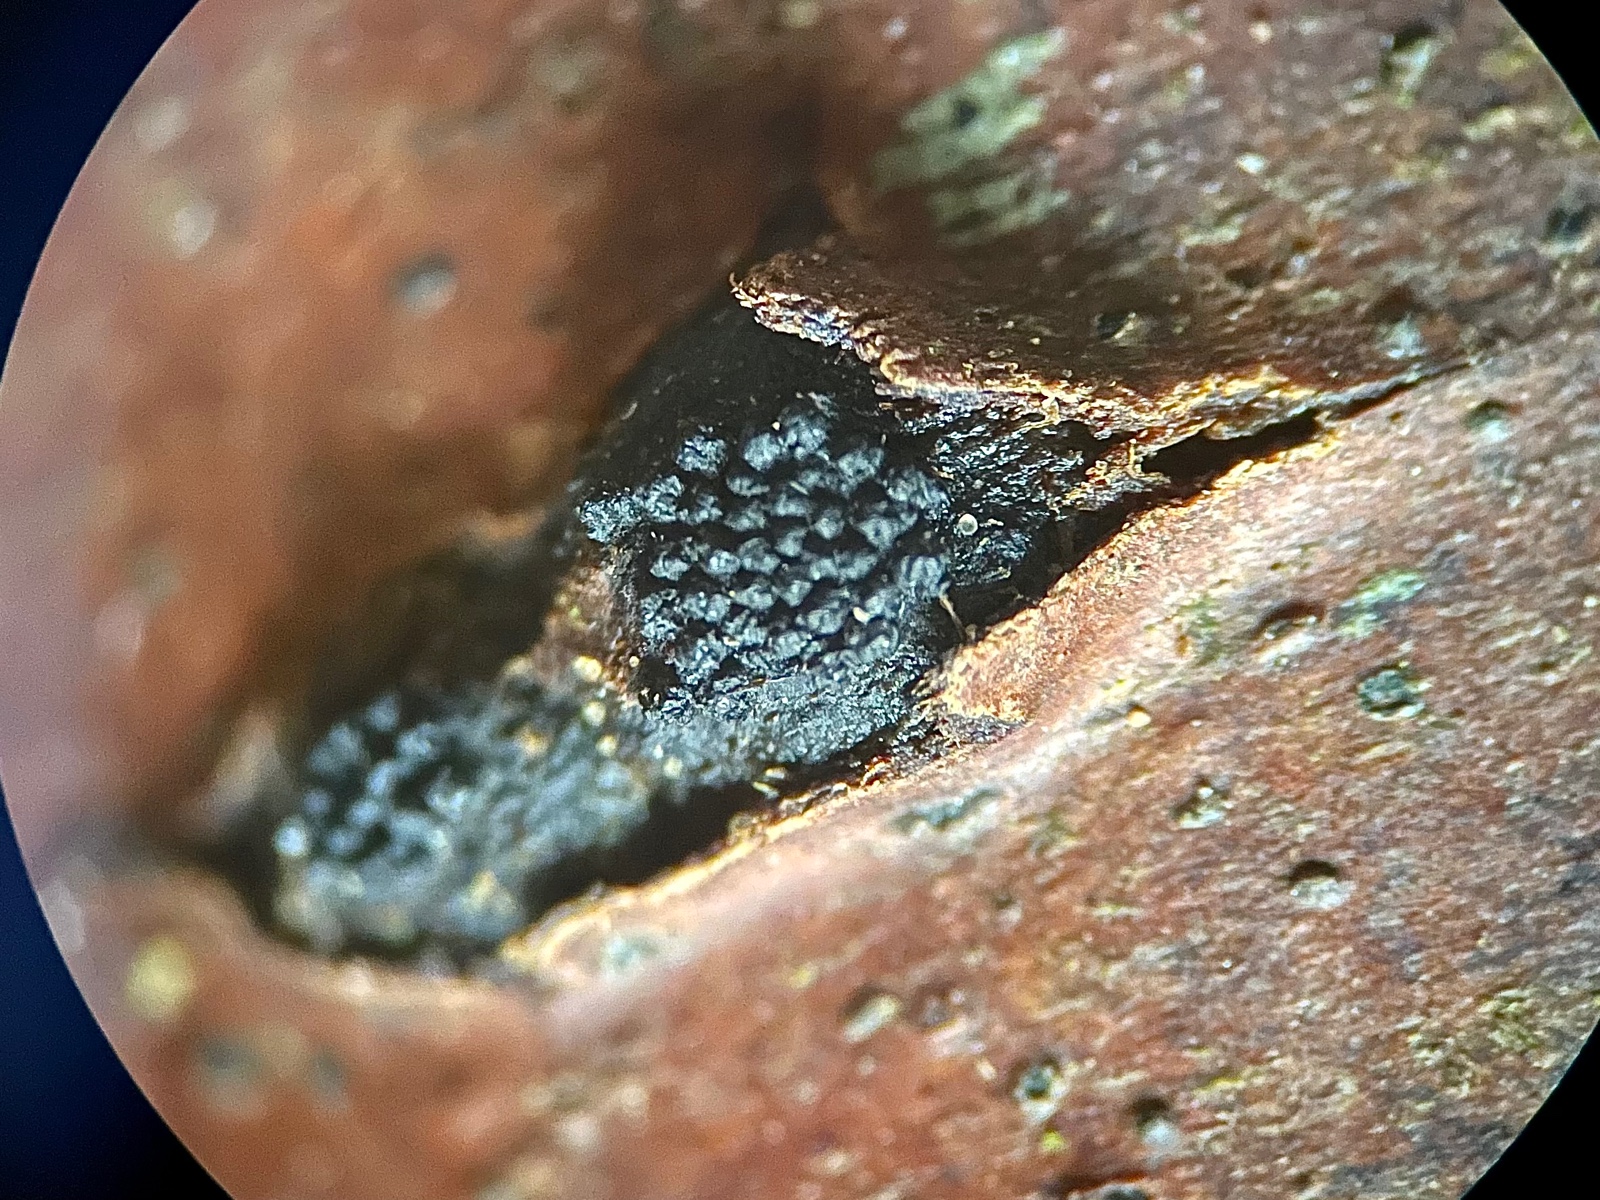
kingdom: Fungi
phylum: Ascomycota
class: Sordariomycetes
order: Xylariales
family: Diatrypaceae
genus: Eutypella
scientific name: Eutypella
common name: kulskorpe
